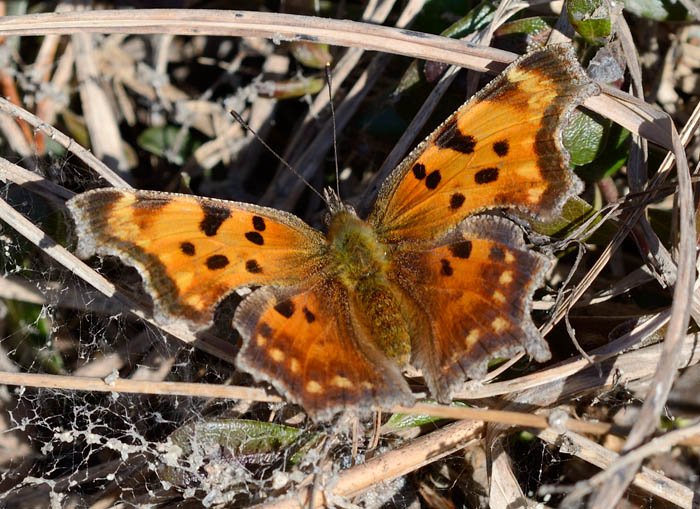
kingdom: Animalia
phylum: Arthropoda
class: Insecta
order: Lepidoptera
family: Nymphalidae
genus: Polygonia
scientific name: Polygonia comma
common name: Eastern Comma
